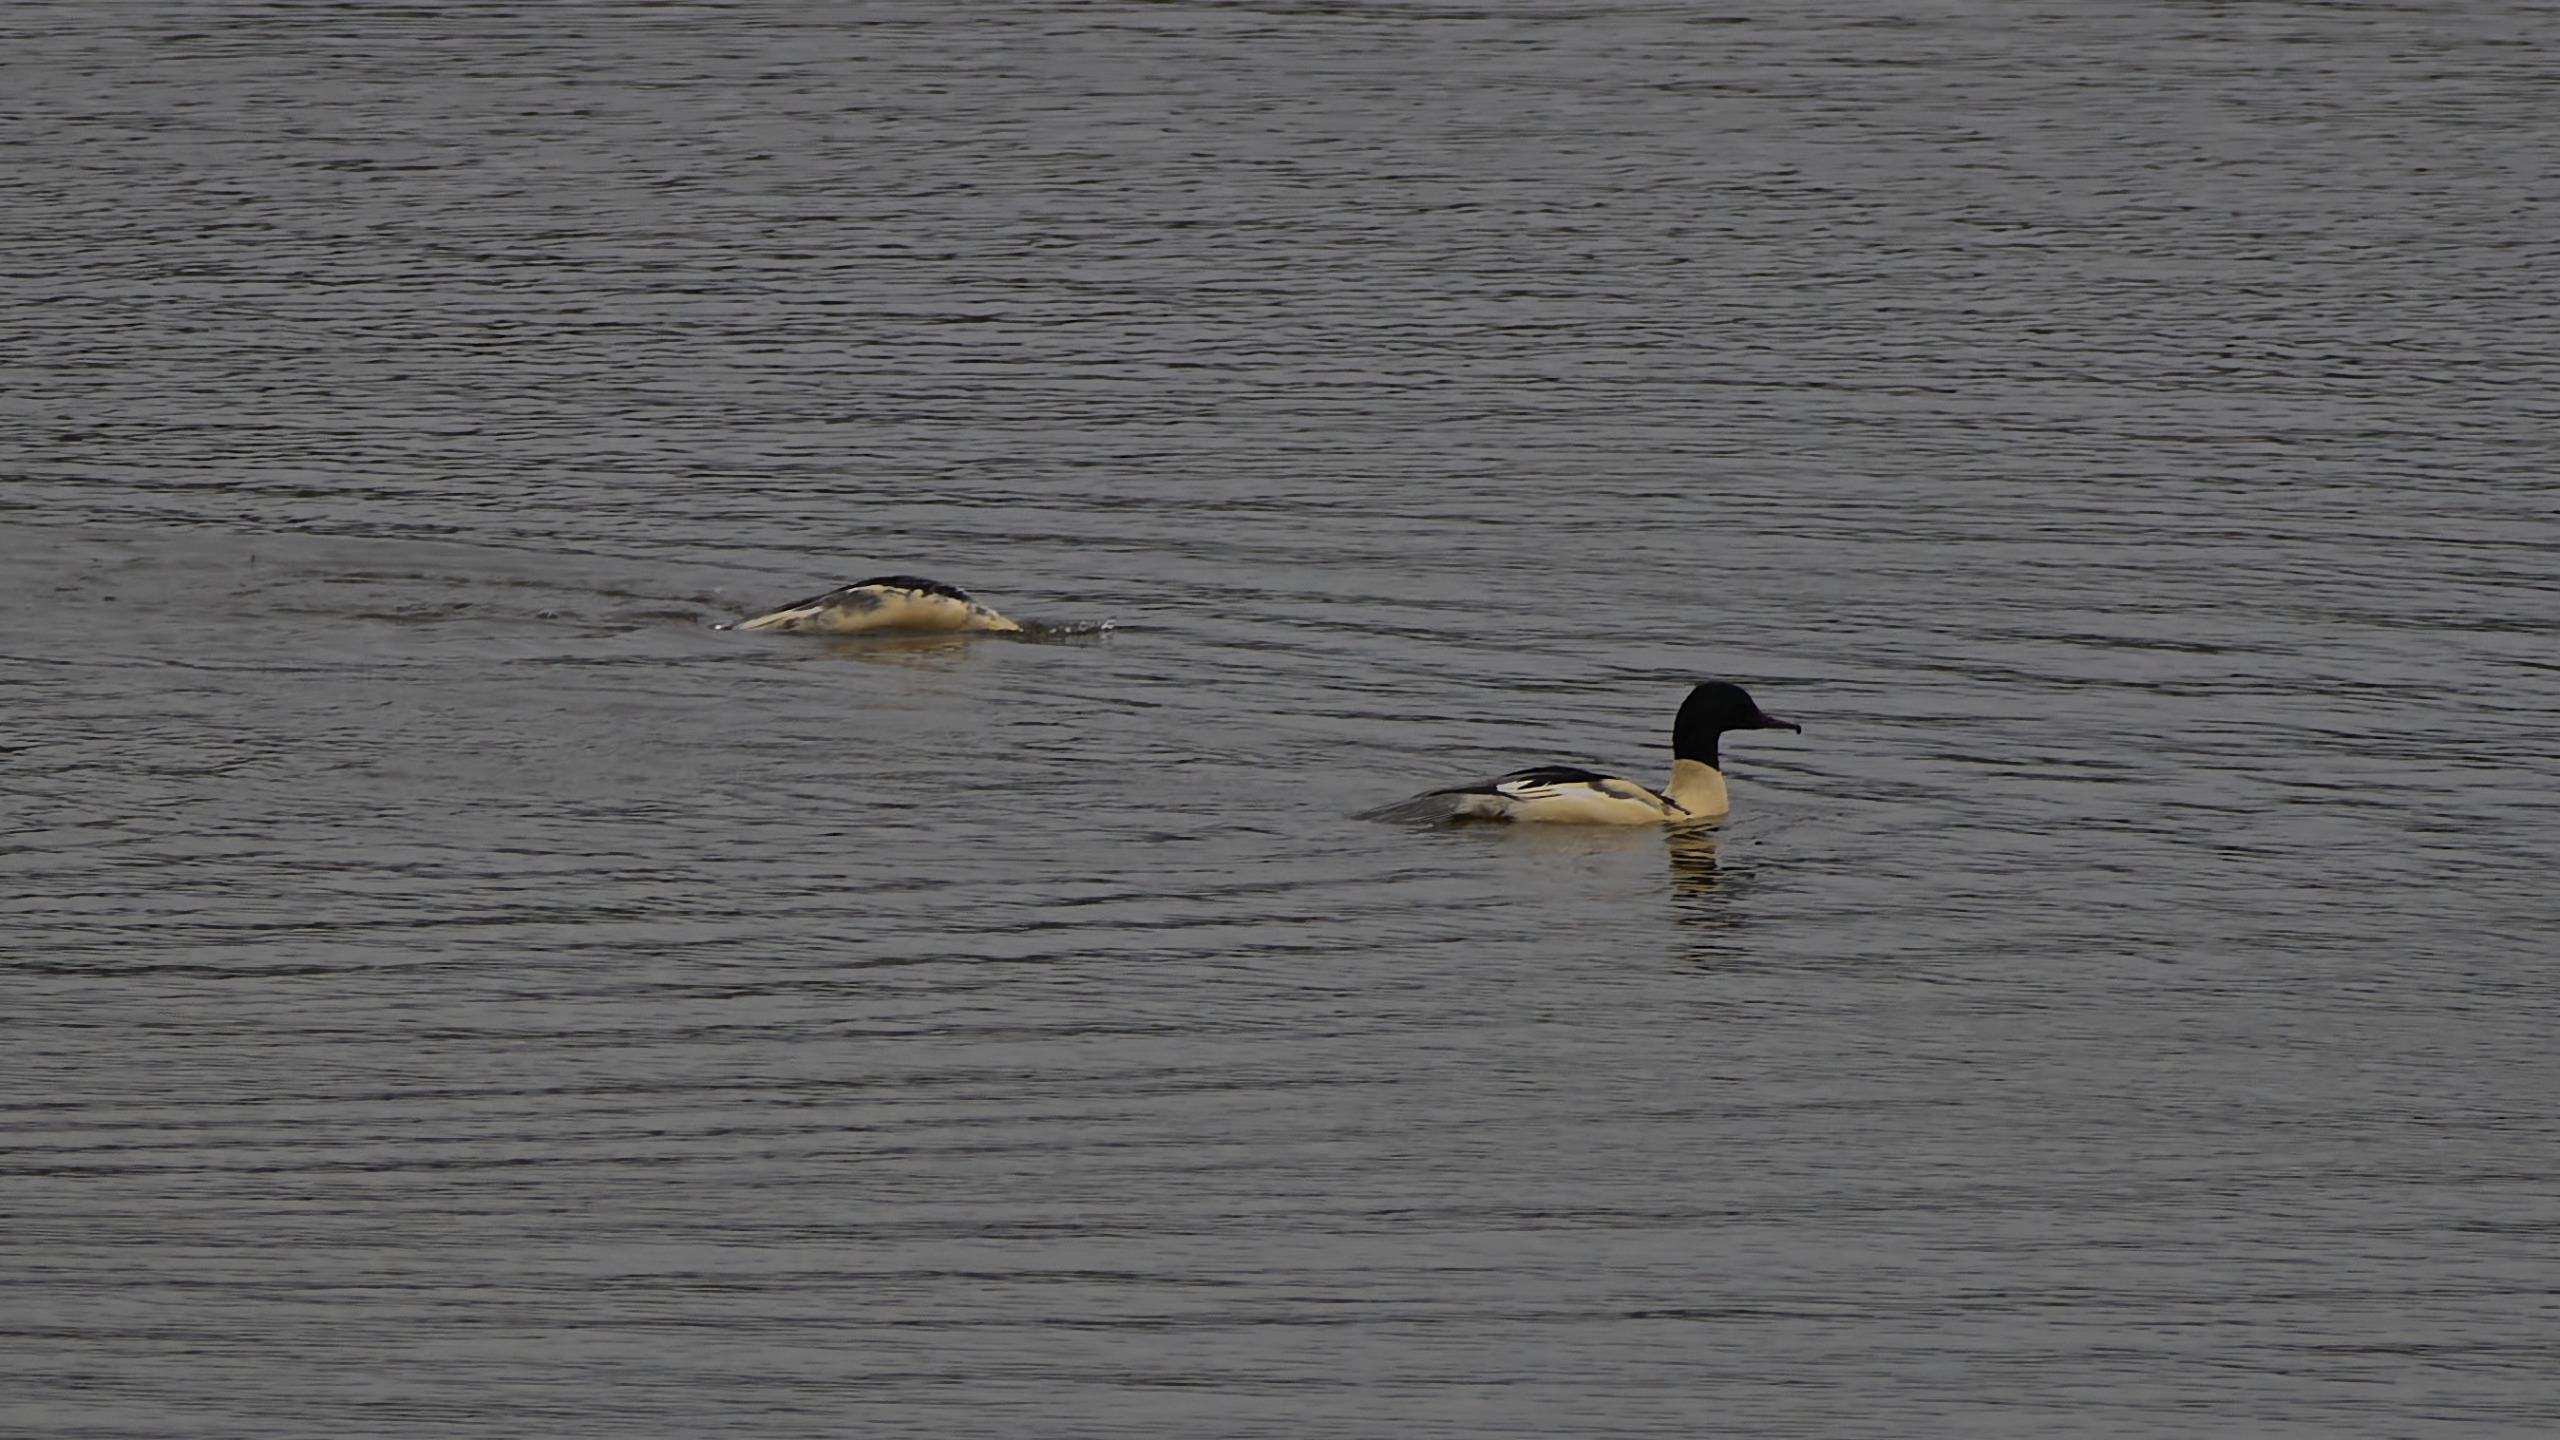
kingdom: Animalia
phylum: Chordata
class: Aves
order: Anseriformes
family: Anatidae
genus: Mergus
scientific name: Mergus merganser
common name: Stor skallesluger
